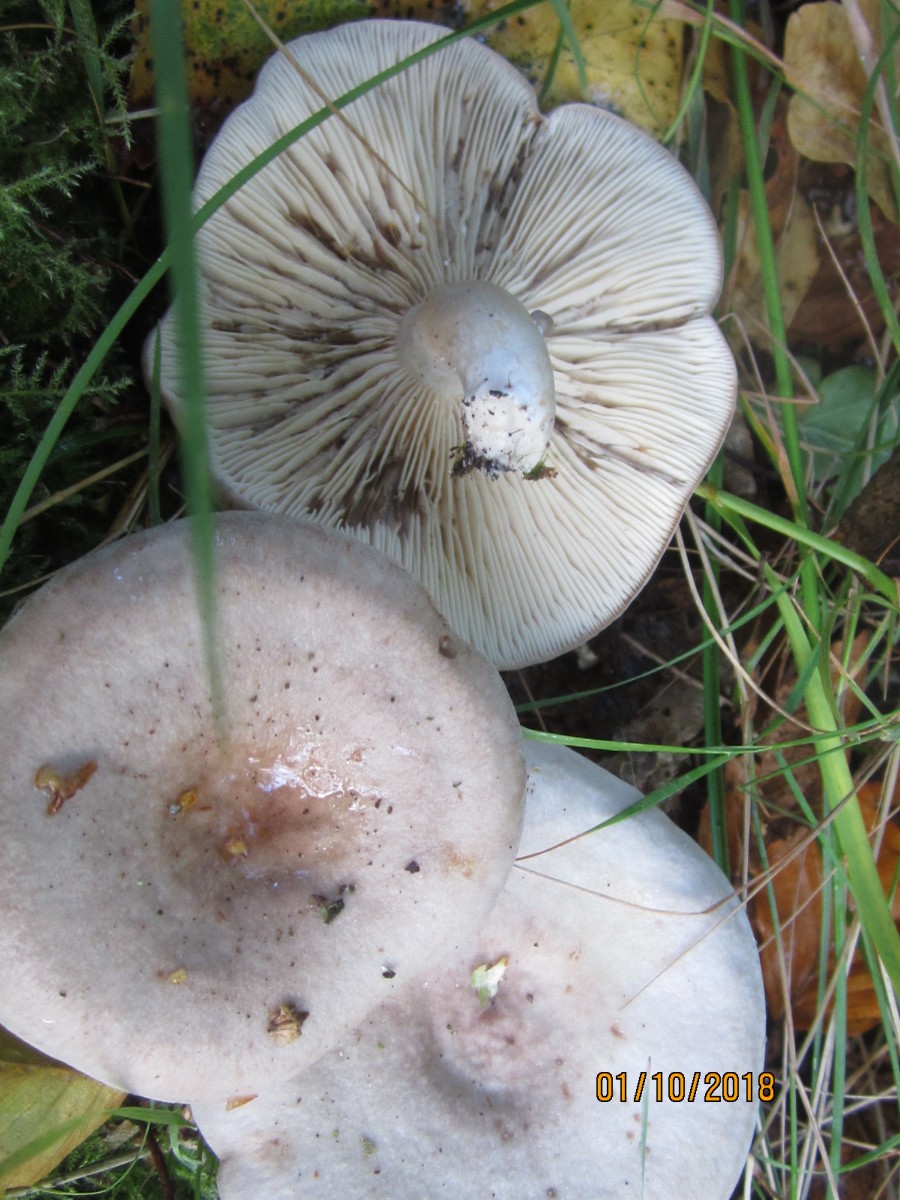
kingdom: Fungi
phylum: Basidiomycota
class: Agaricomycetes
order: Russulales
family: Russulaceae
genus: Lactarius
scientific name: Lactarius vietus
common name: violetgrå mælkehat
